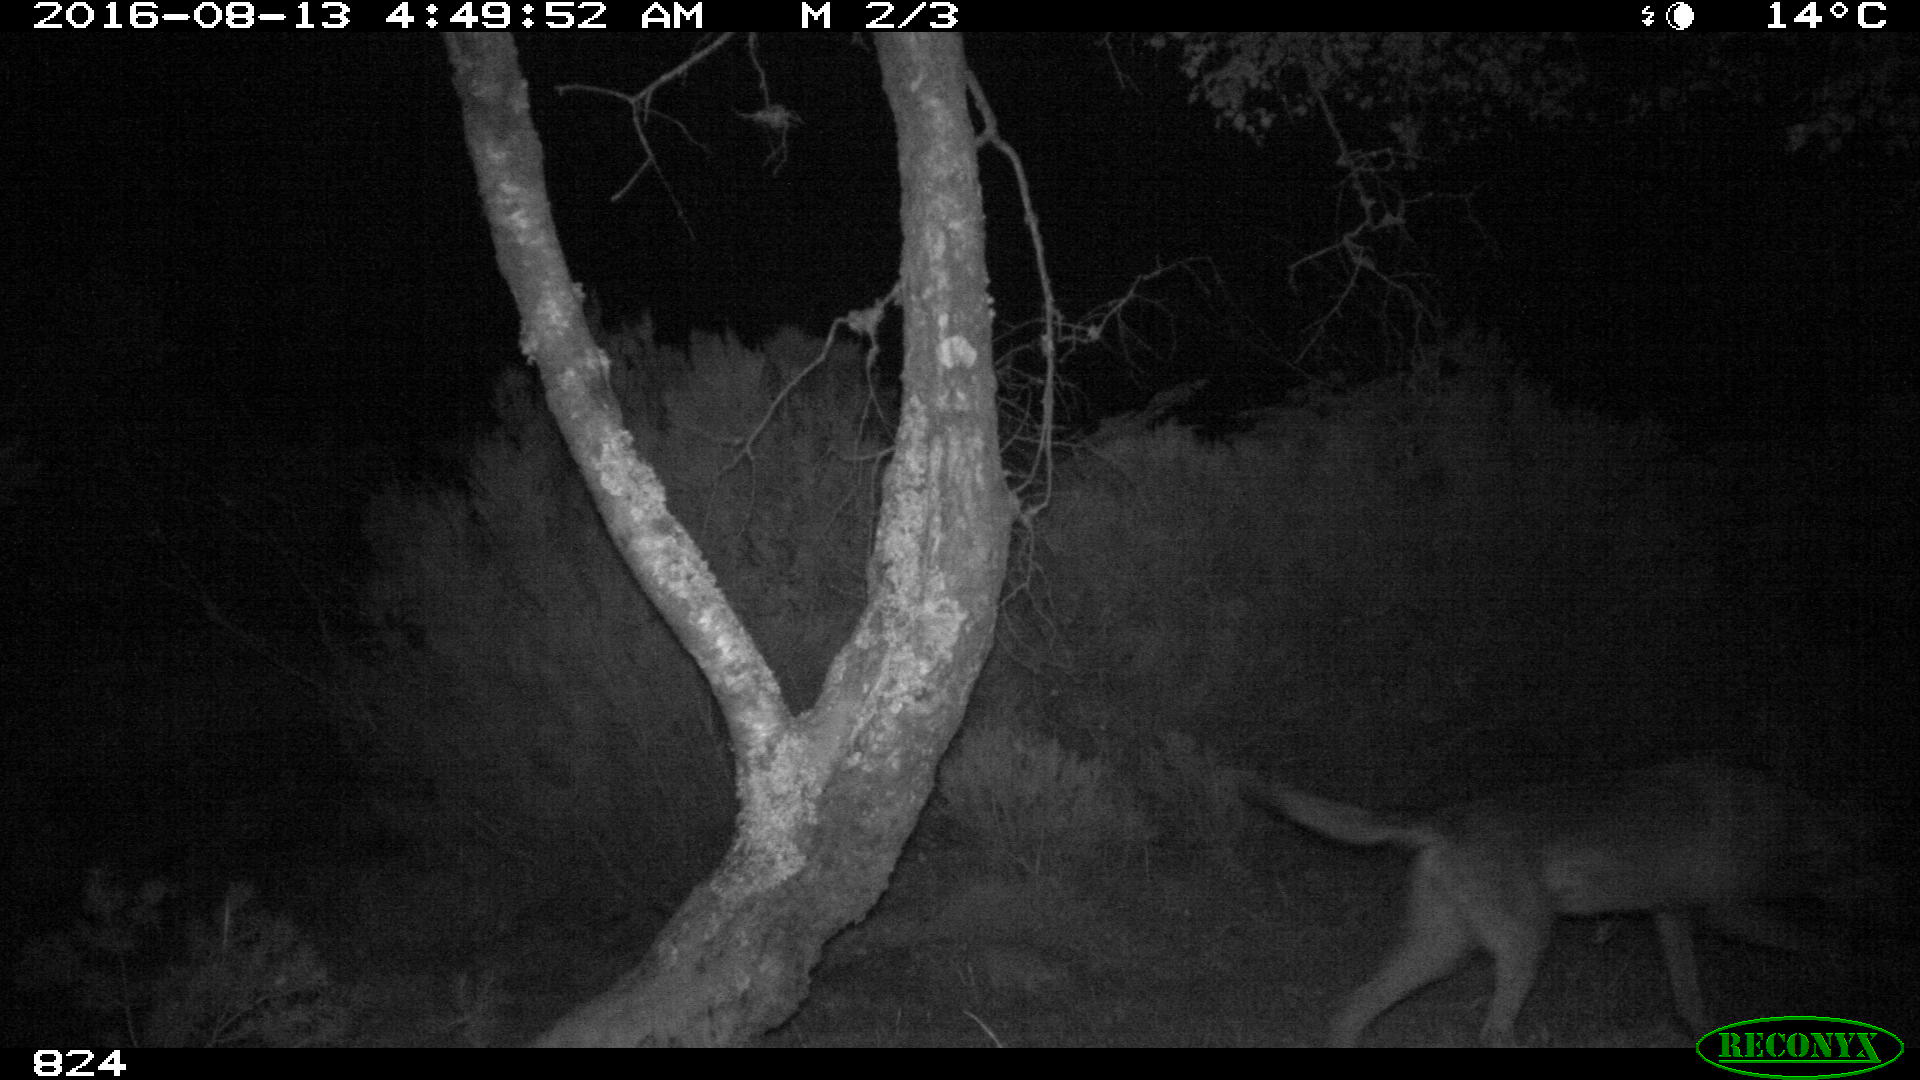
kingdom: Animalia
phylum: Chordata
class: Mammalia
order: Carnivora
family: Canidae
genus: Canis
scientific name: Canis lupus
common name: Gray wolf
